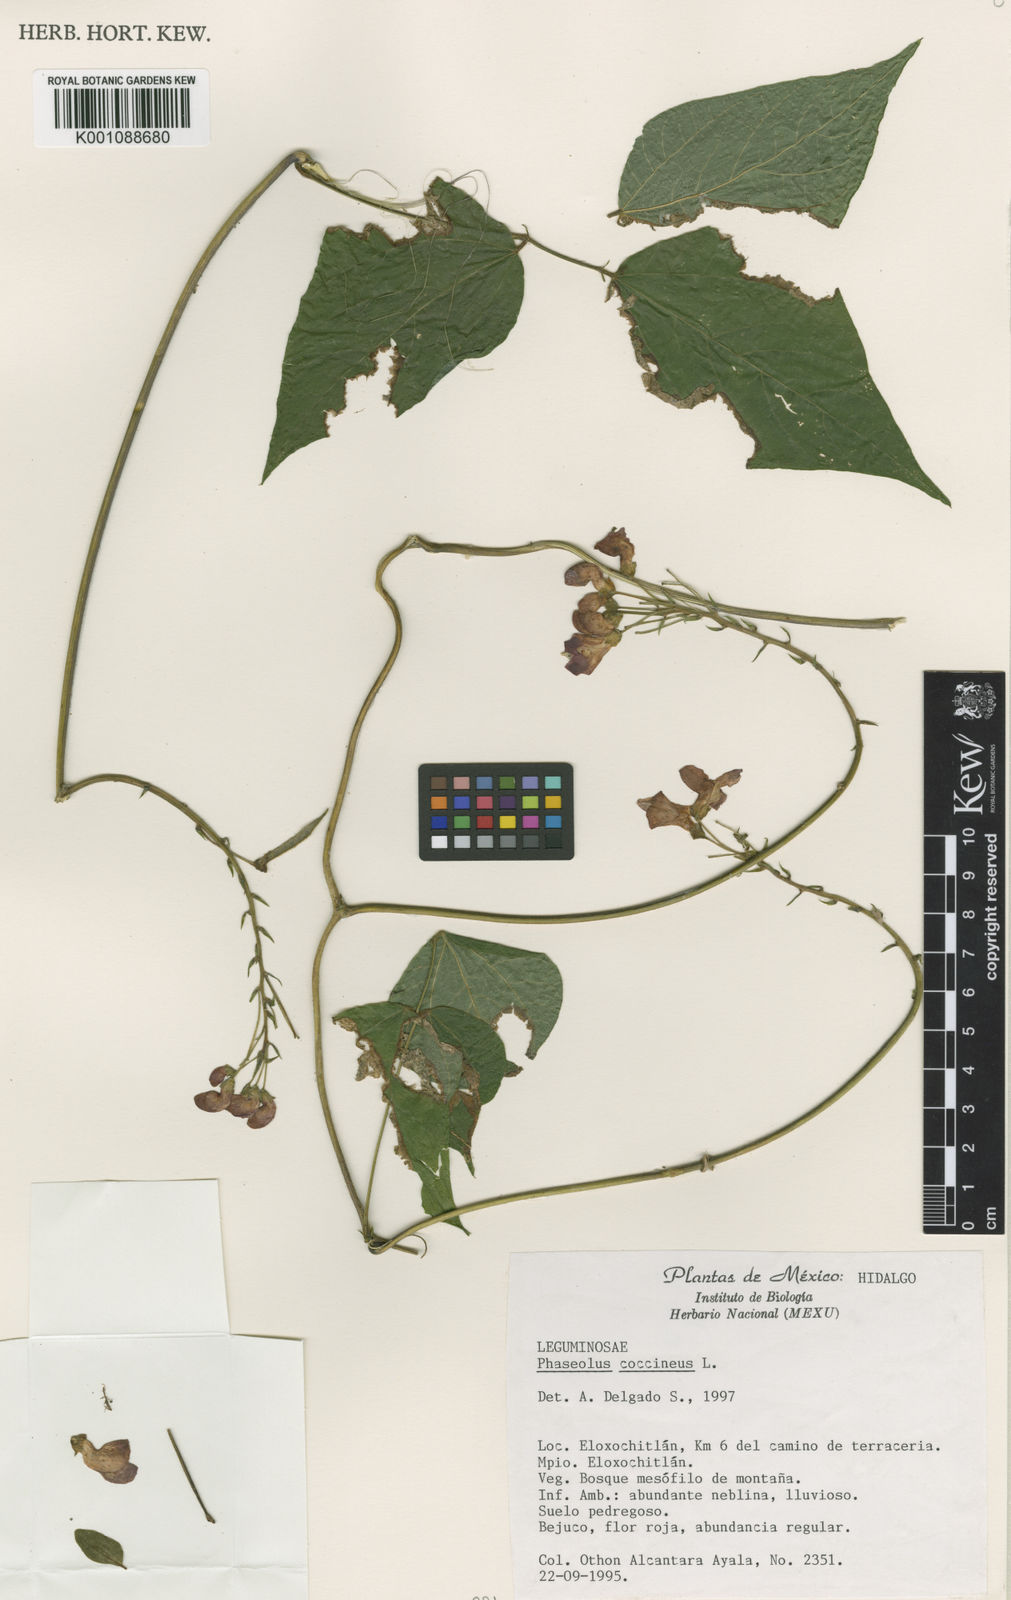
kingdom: Plantae
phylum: Tracheophyta
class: Magnoliopsida
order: Fabales
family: Fabaceae
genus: Phaseolus
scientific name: Phaseolus coccineus
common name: Runner bean
